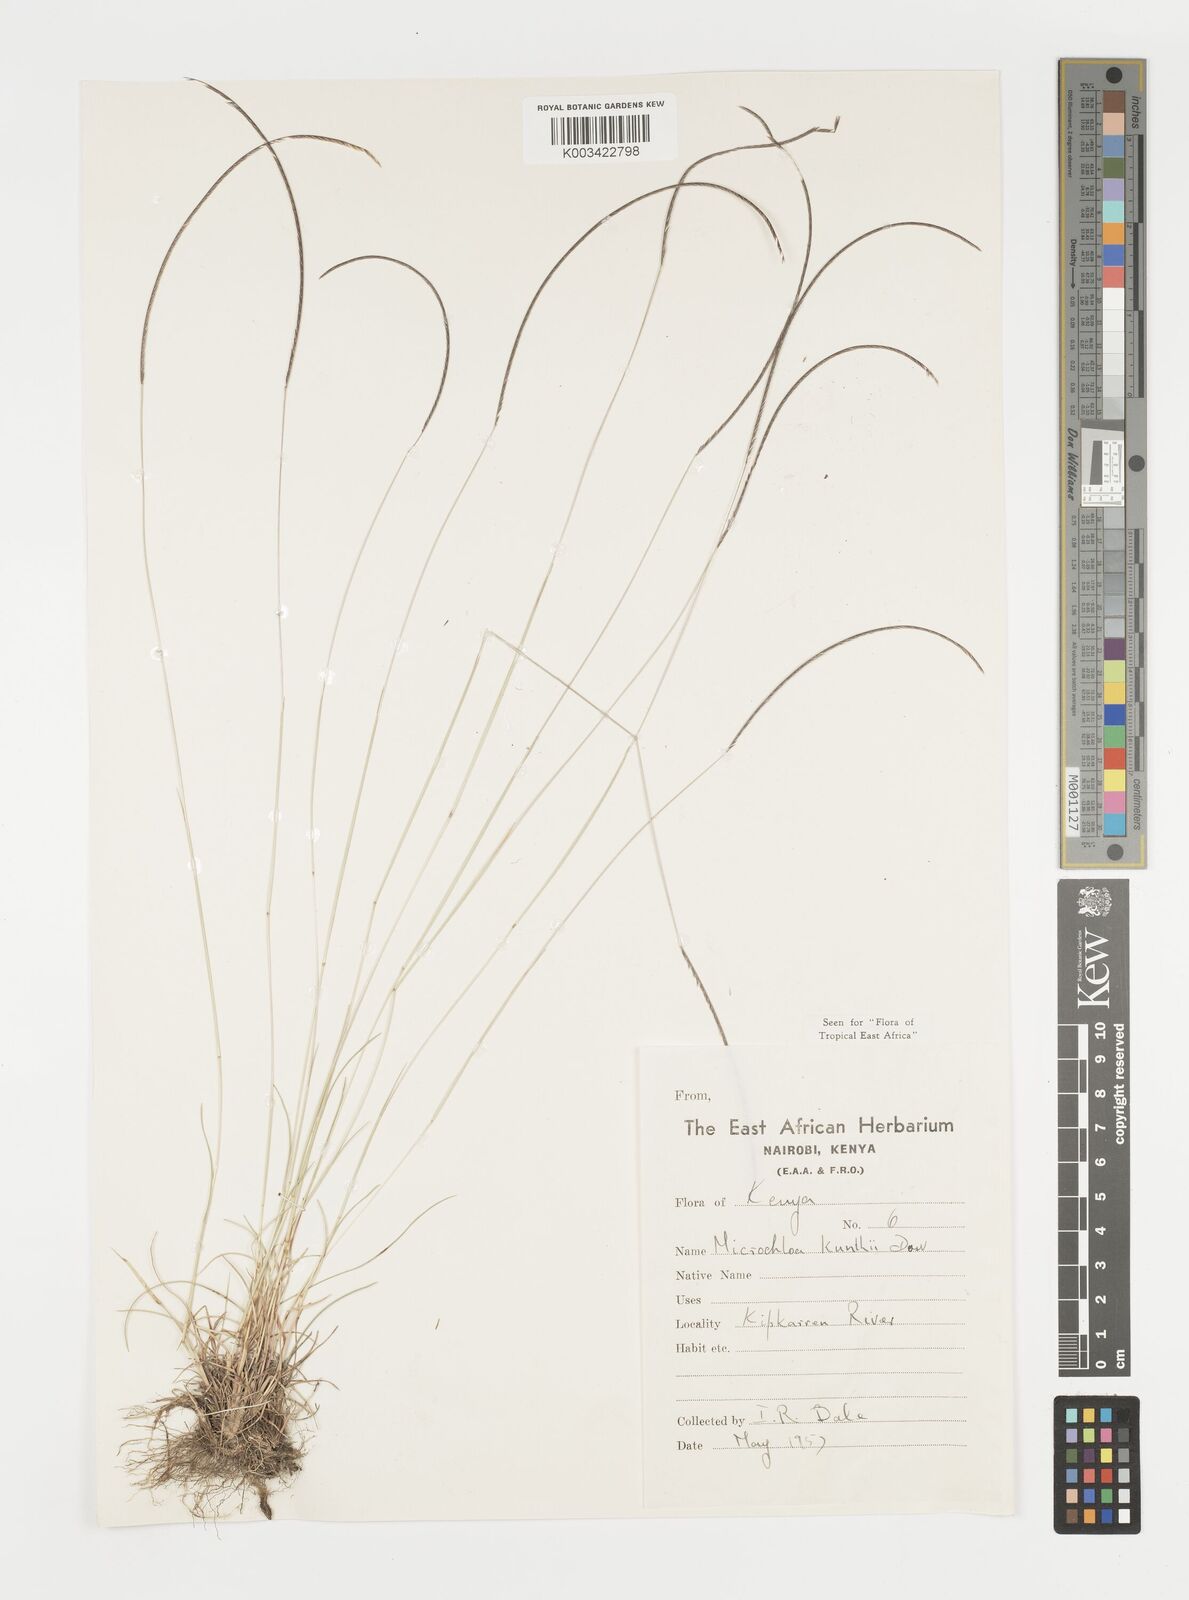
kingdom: Plantae
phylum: Tracheophyta
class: Liliopsida
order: Poales
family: Poaceae
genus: Microchloa
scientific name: Microchloa kunthii
